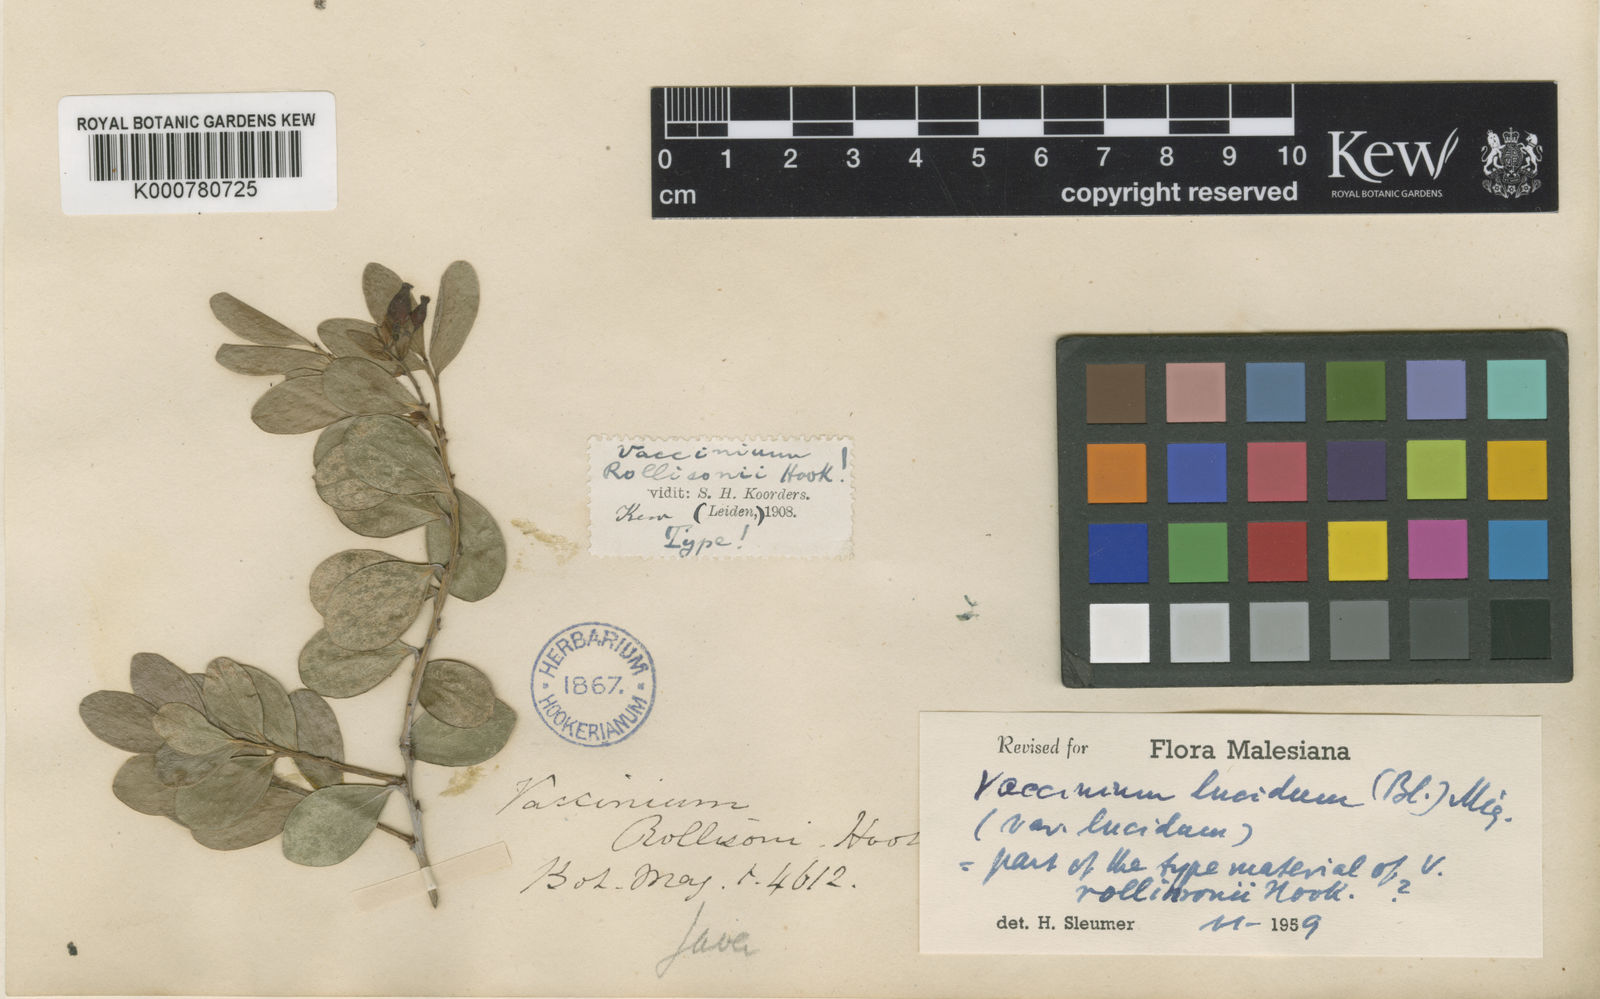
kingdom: Plantae
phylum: Tracheophyta
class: Magnoliopsida
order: Ericales
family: Ericaceae
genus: Vaccinium
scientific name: Vaccinium lucidum
